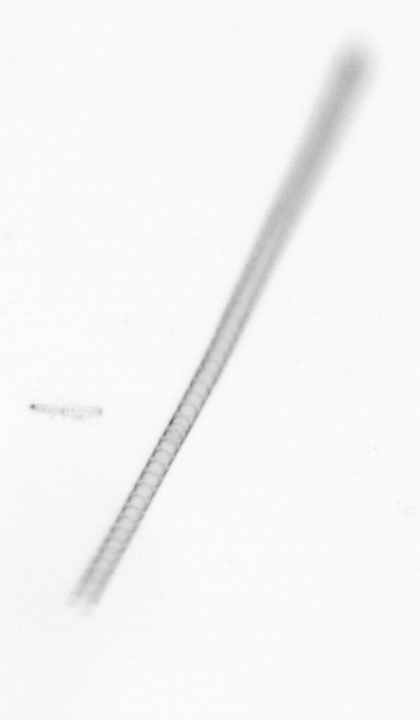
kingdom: Chromista
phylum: Ochrophyta
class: Bacillariophyceae
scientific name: Bacillariophyceae
